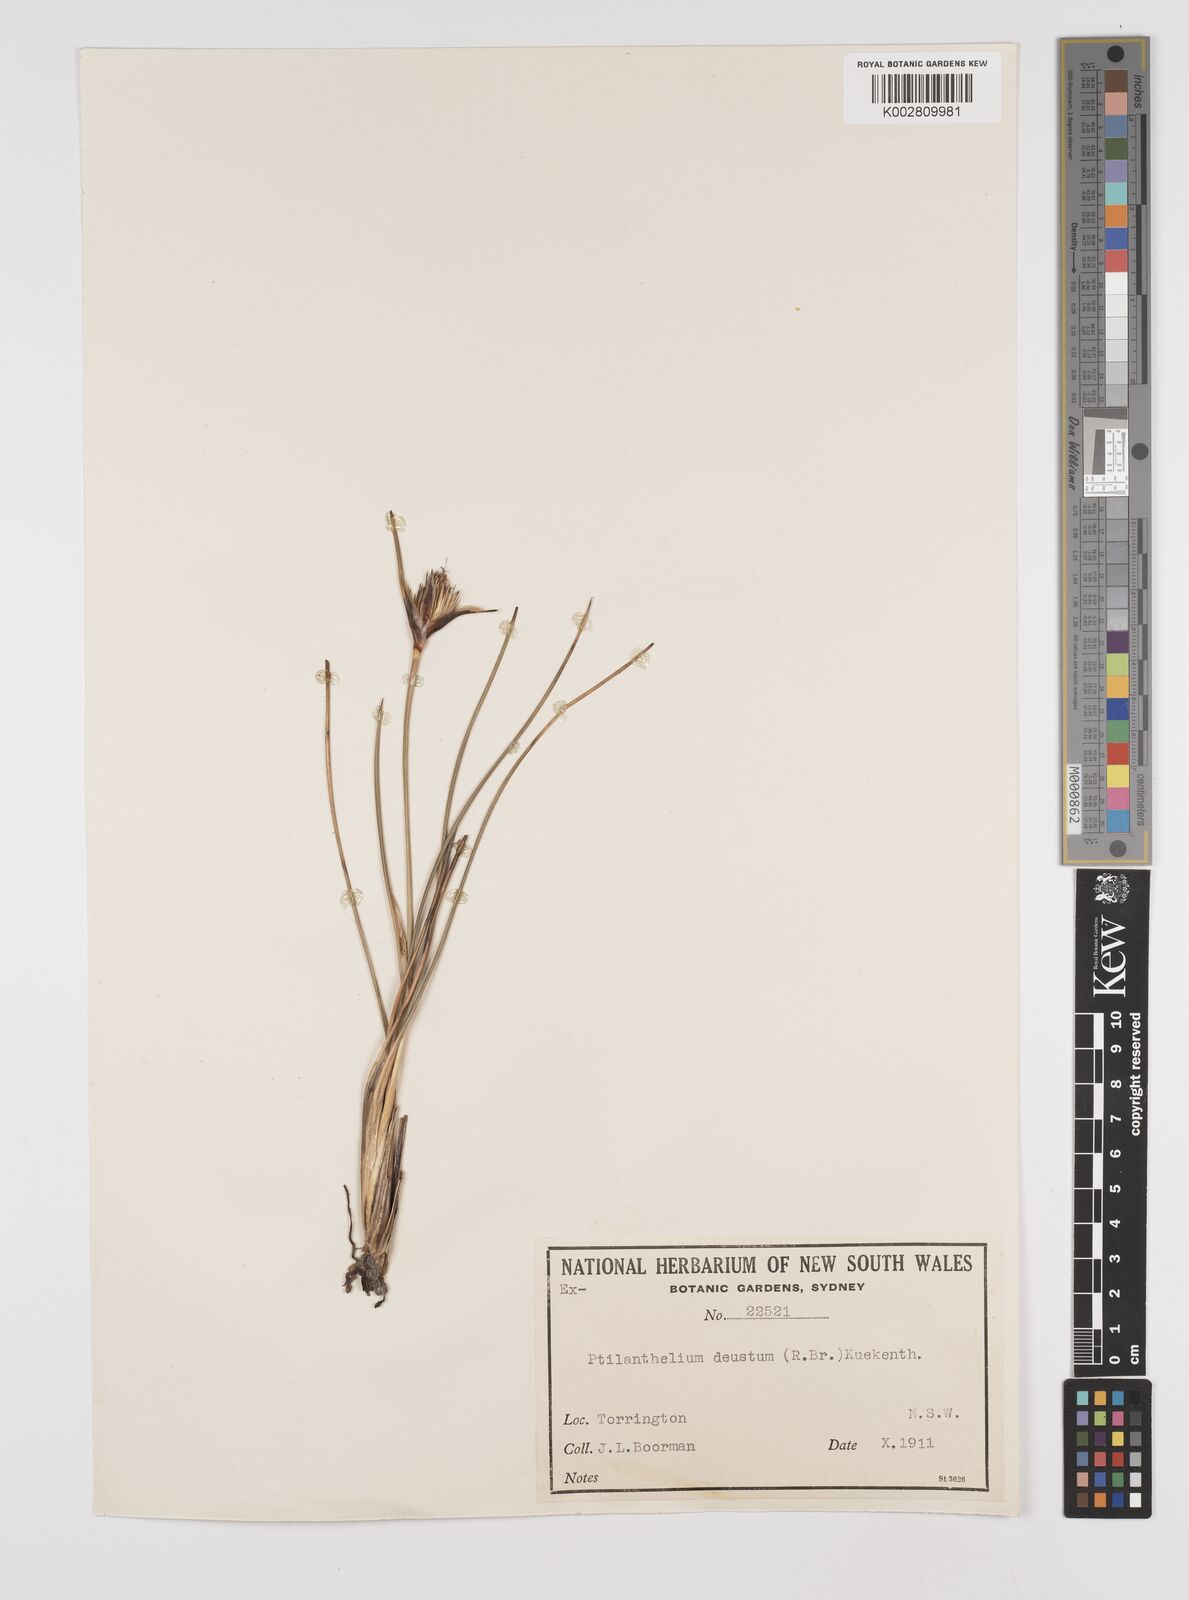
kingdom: Plantae
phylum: Tracheophyta
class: Liliopsida
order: Poales
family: Cyperaceae
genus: Ptilothrix
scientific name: Ptilothrix deusta
